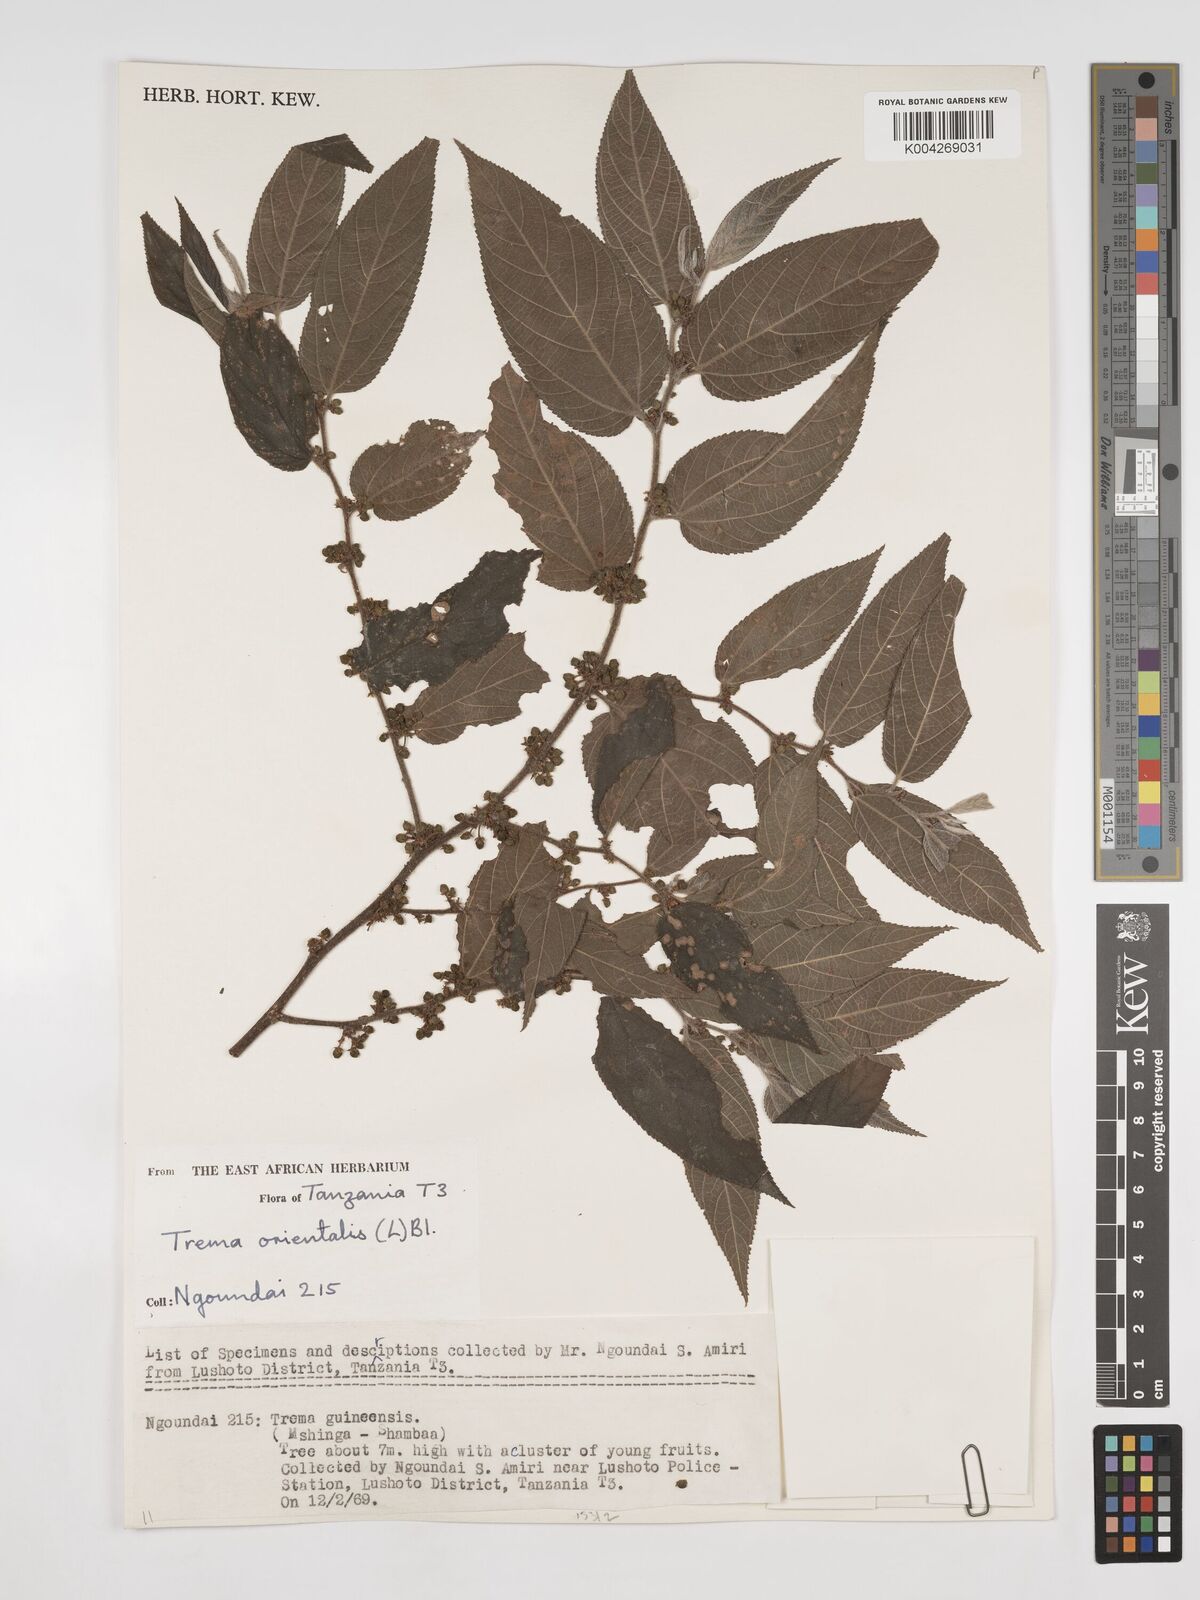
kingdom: Plantae
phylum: Tracheophyta
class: Magnoliopsida
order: Rosales
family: Cannabaceae
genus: Trema
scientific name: Trema orientale
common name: Indian charcoal tree
